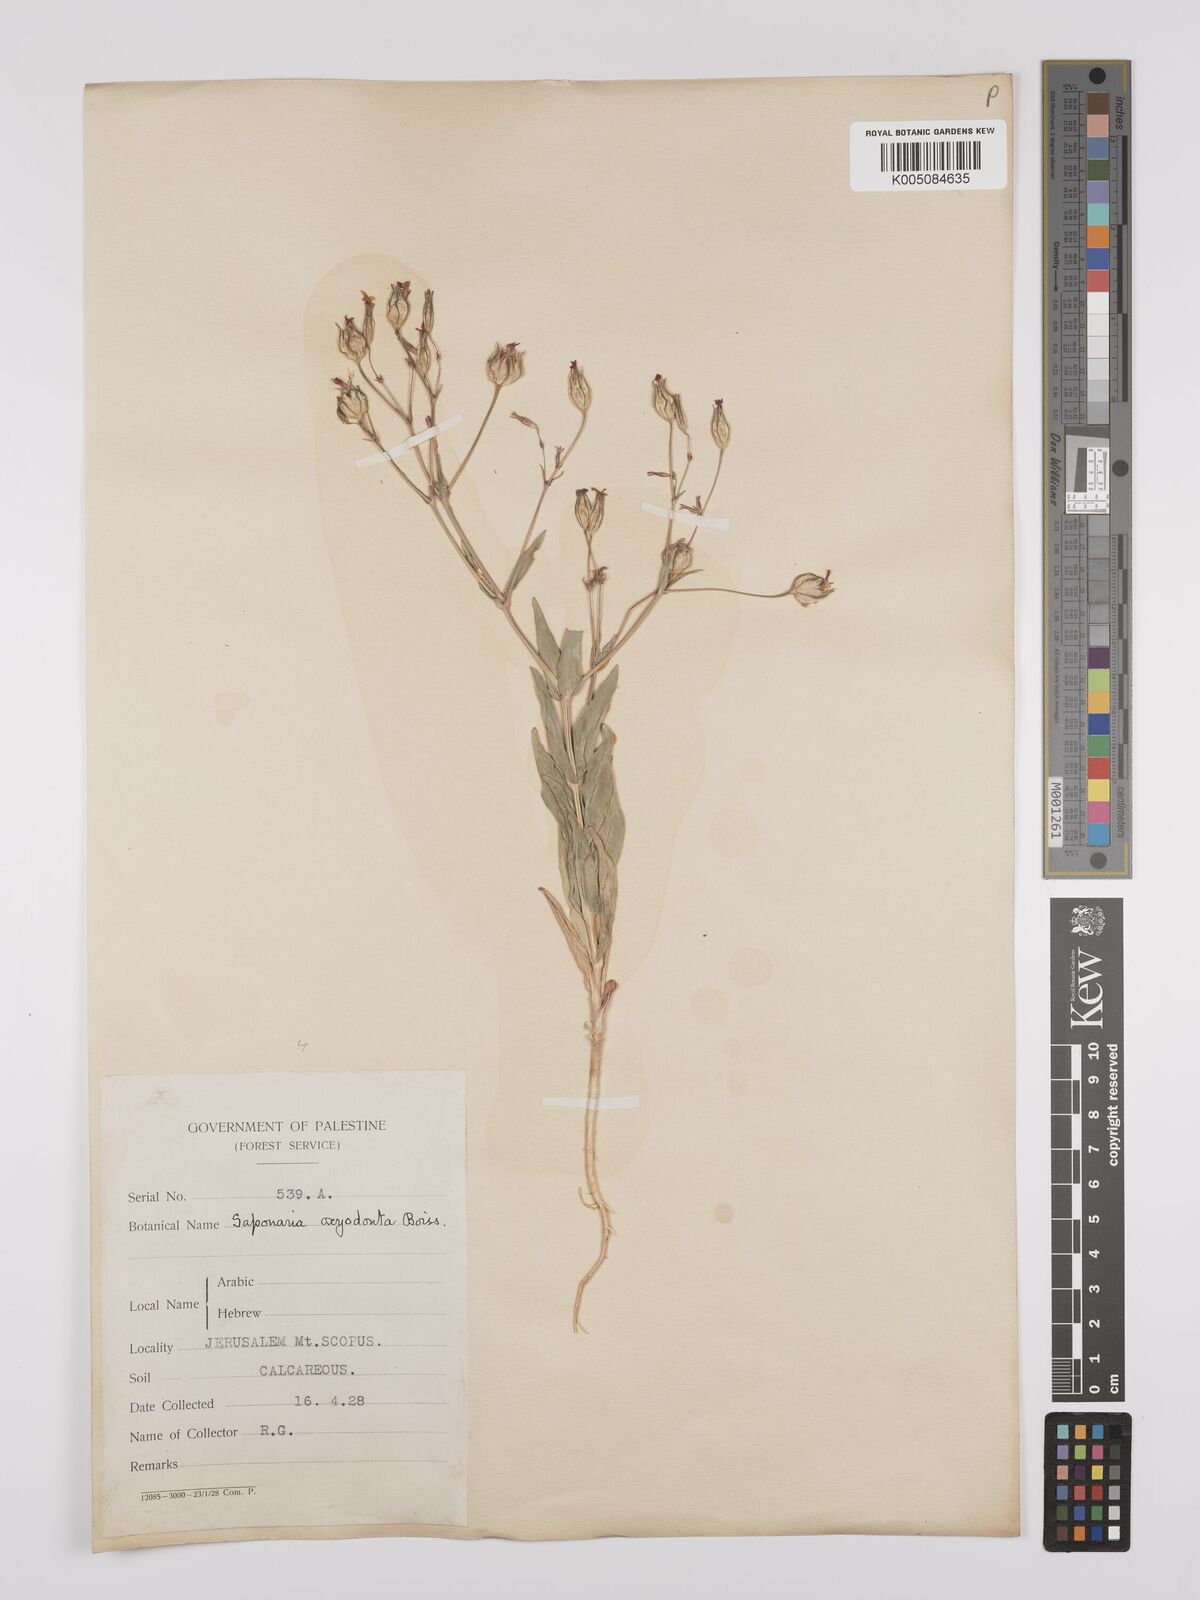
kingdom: Plantae
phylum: Tracheophyta
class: Magnoliopsida
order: Caryophyllales
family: Caryophyllaceae
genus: Gypsophila
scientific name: Gypsophila vaccaria
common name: Cow soapwort
